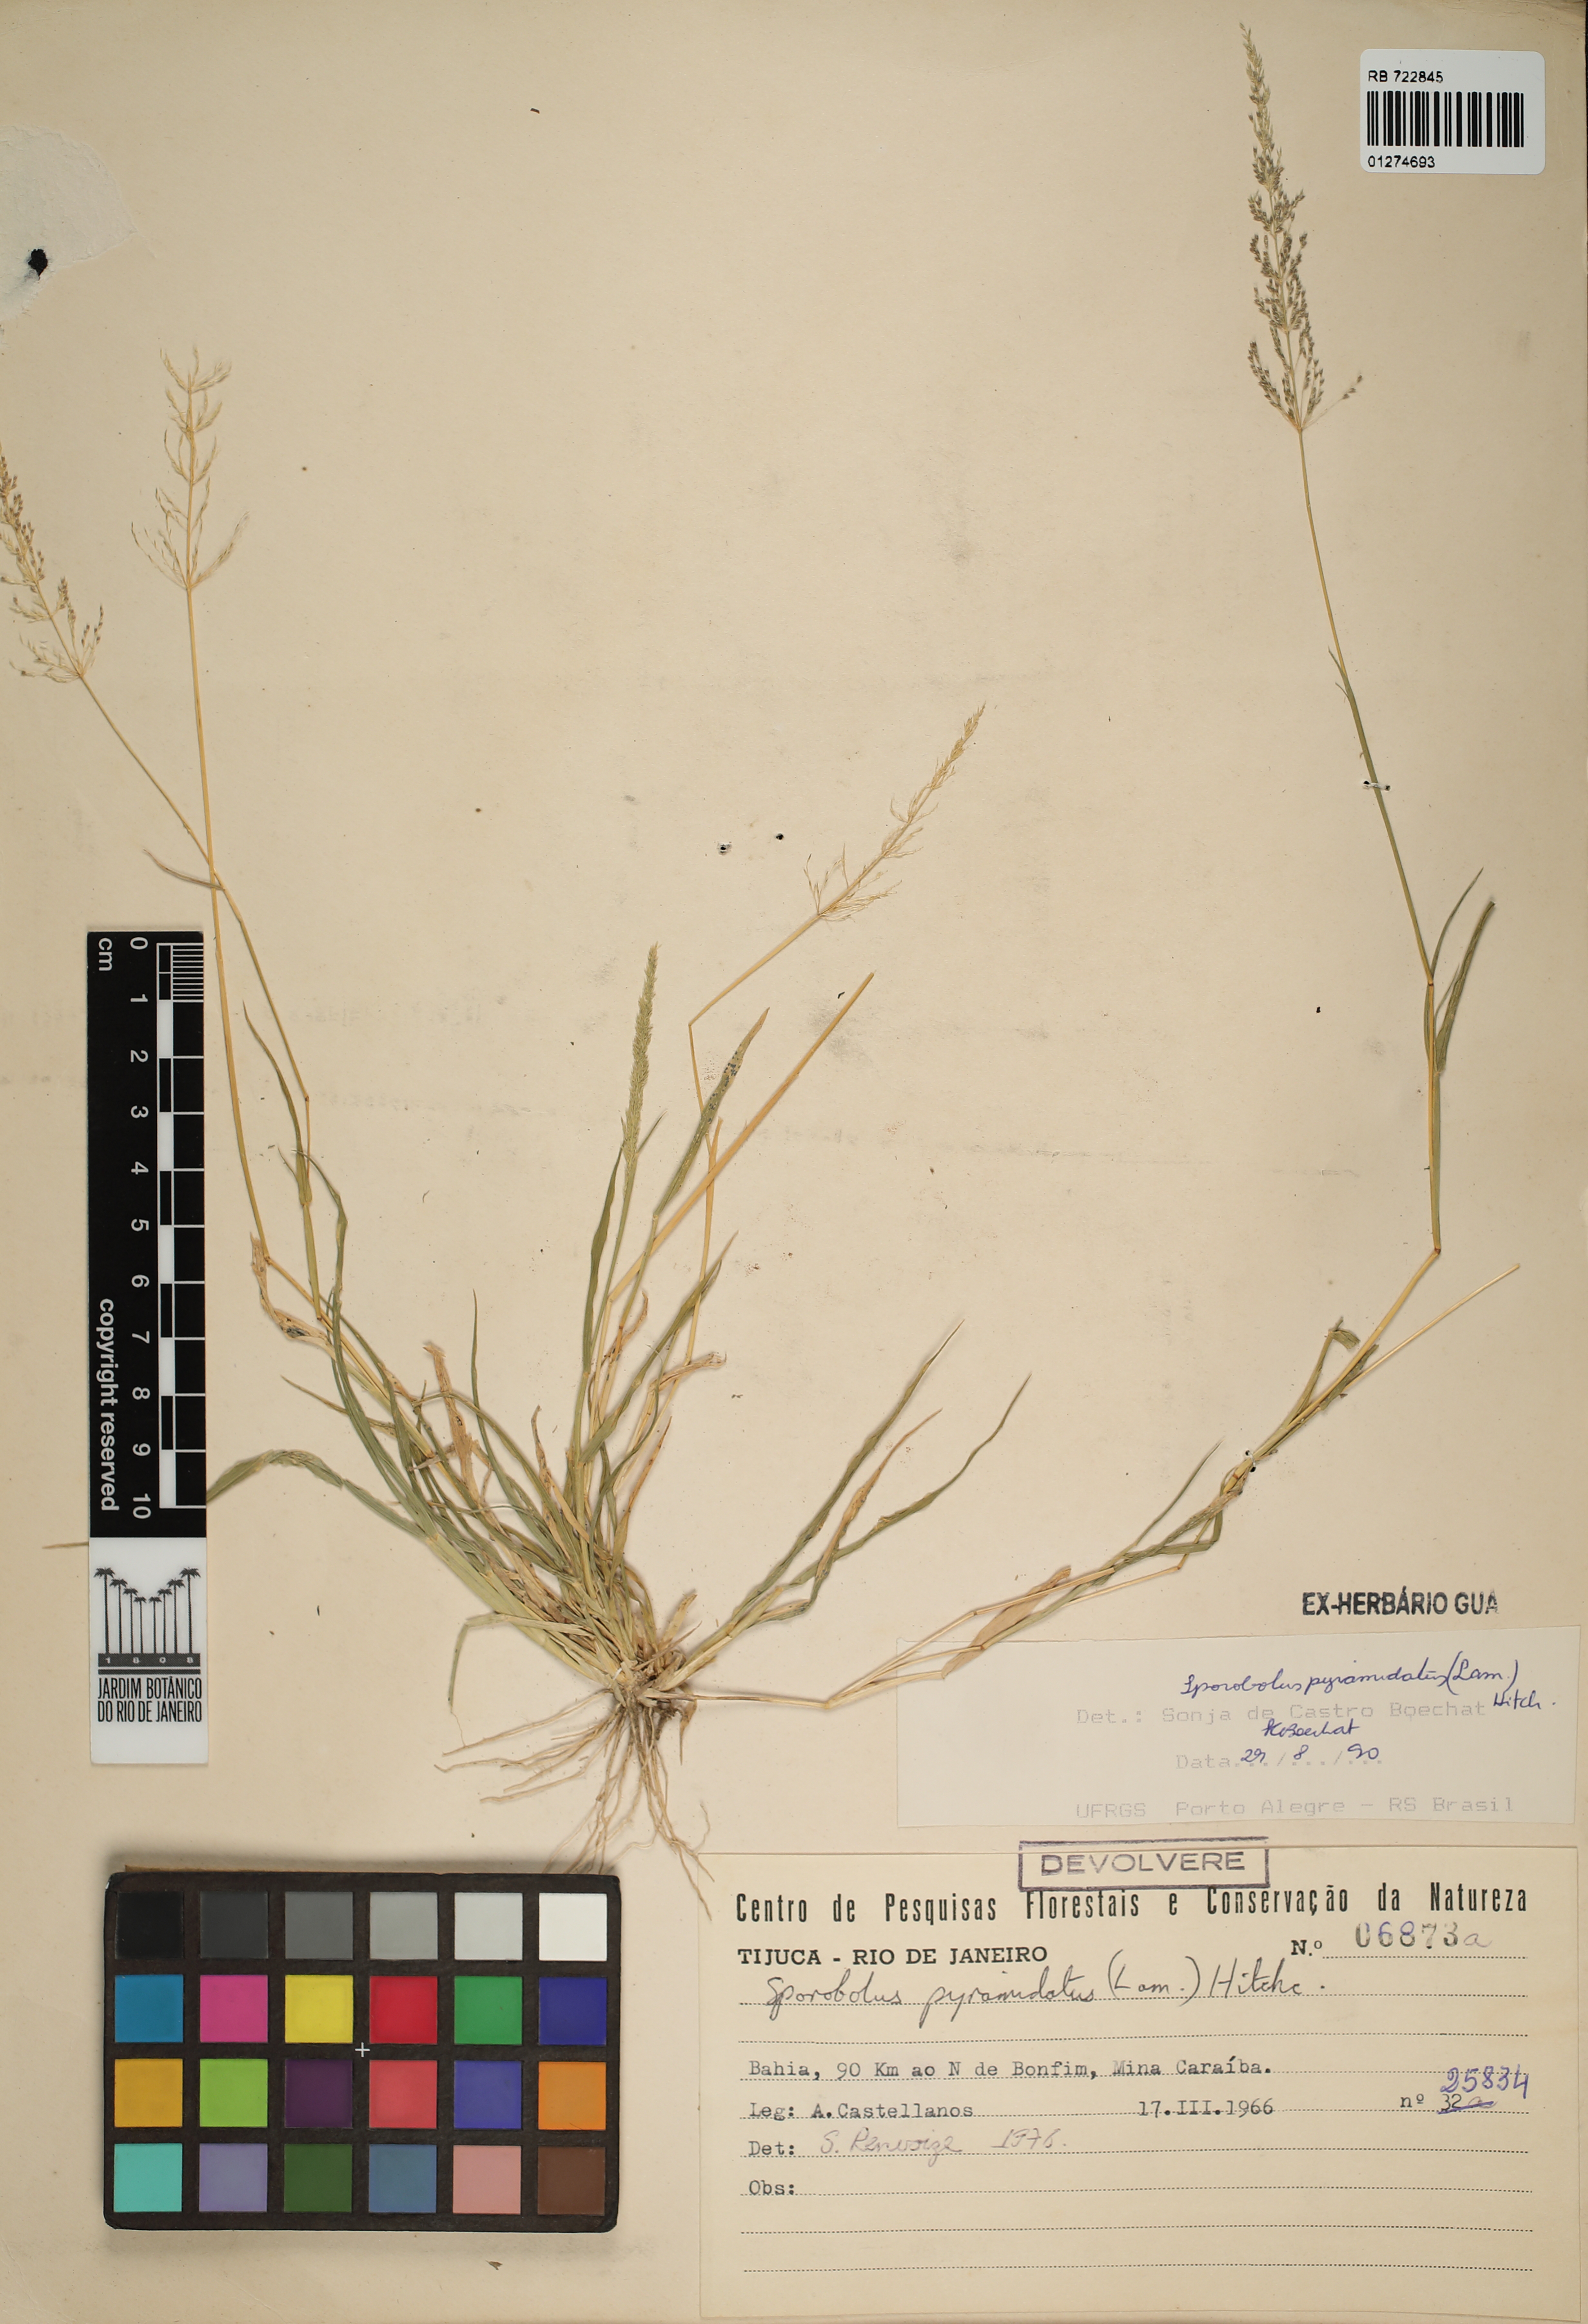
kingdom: Plantae
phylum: Tracheophyta
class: Liliopsida
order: Poales
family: Poaceae
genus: Sporobolus
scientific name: Sporobolus pyramidatus
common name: Whorled dropseed
